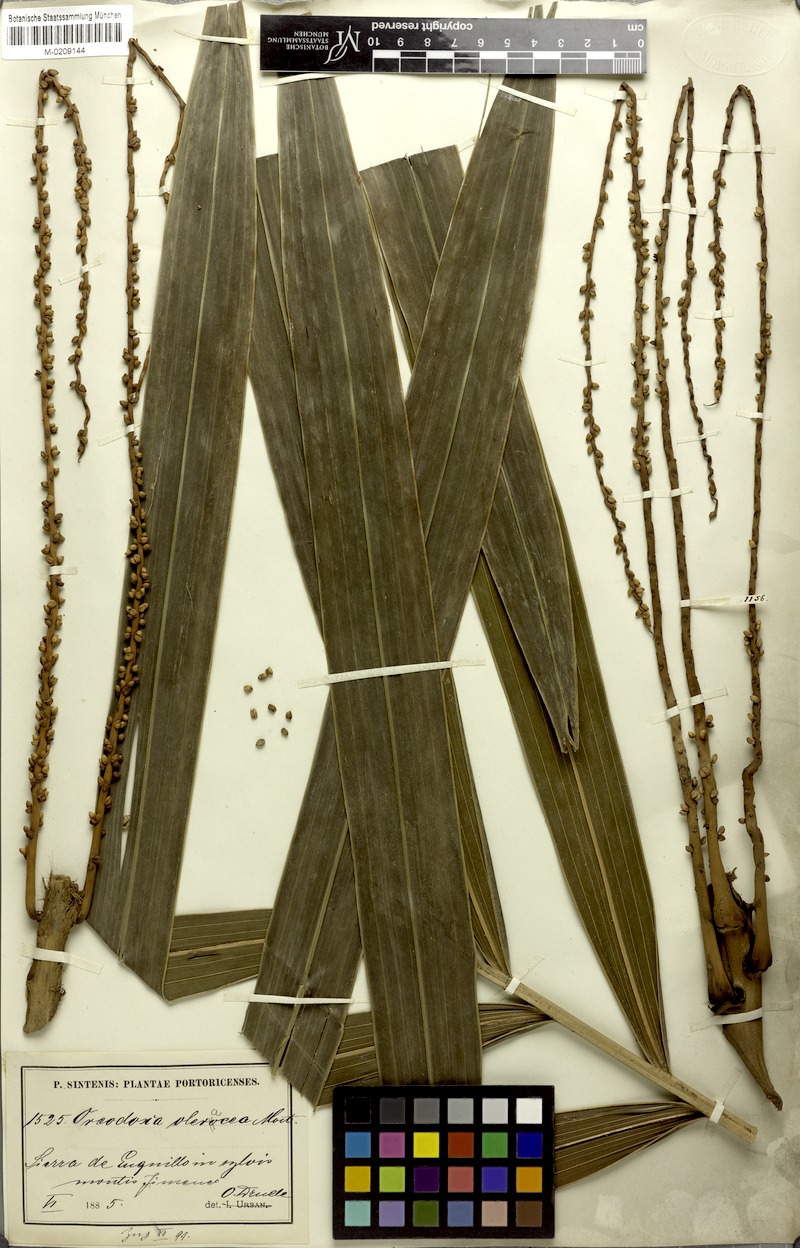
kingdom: Plantae
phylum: Tracheophyta
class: Liliopsida
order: Arecales
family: Arecaceae
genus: Roystonea
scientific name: Roystonea oleracea
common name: South american royal palm
